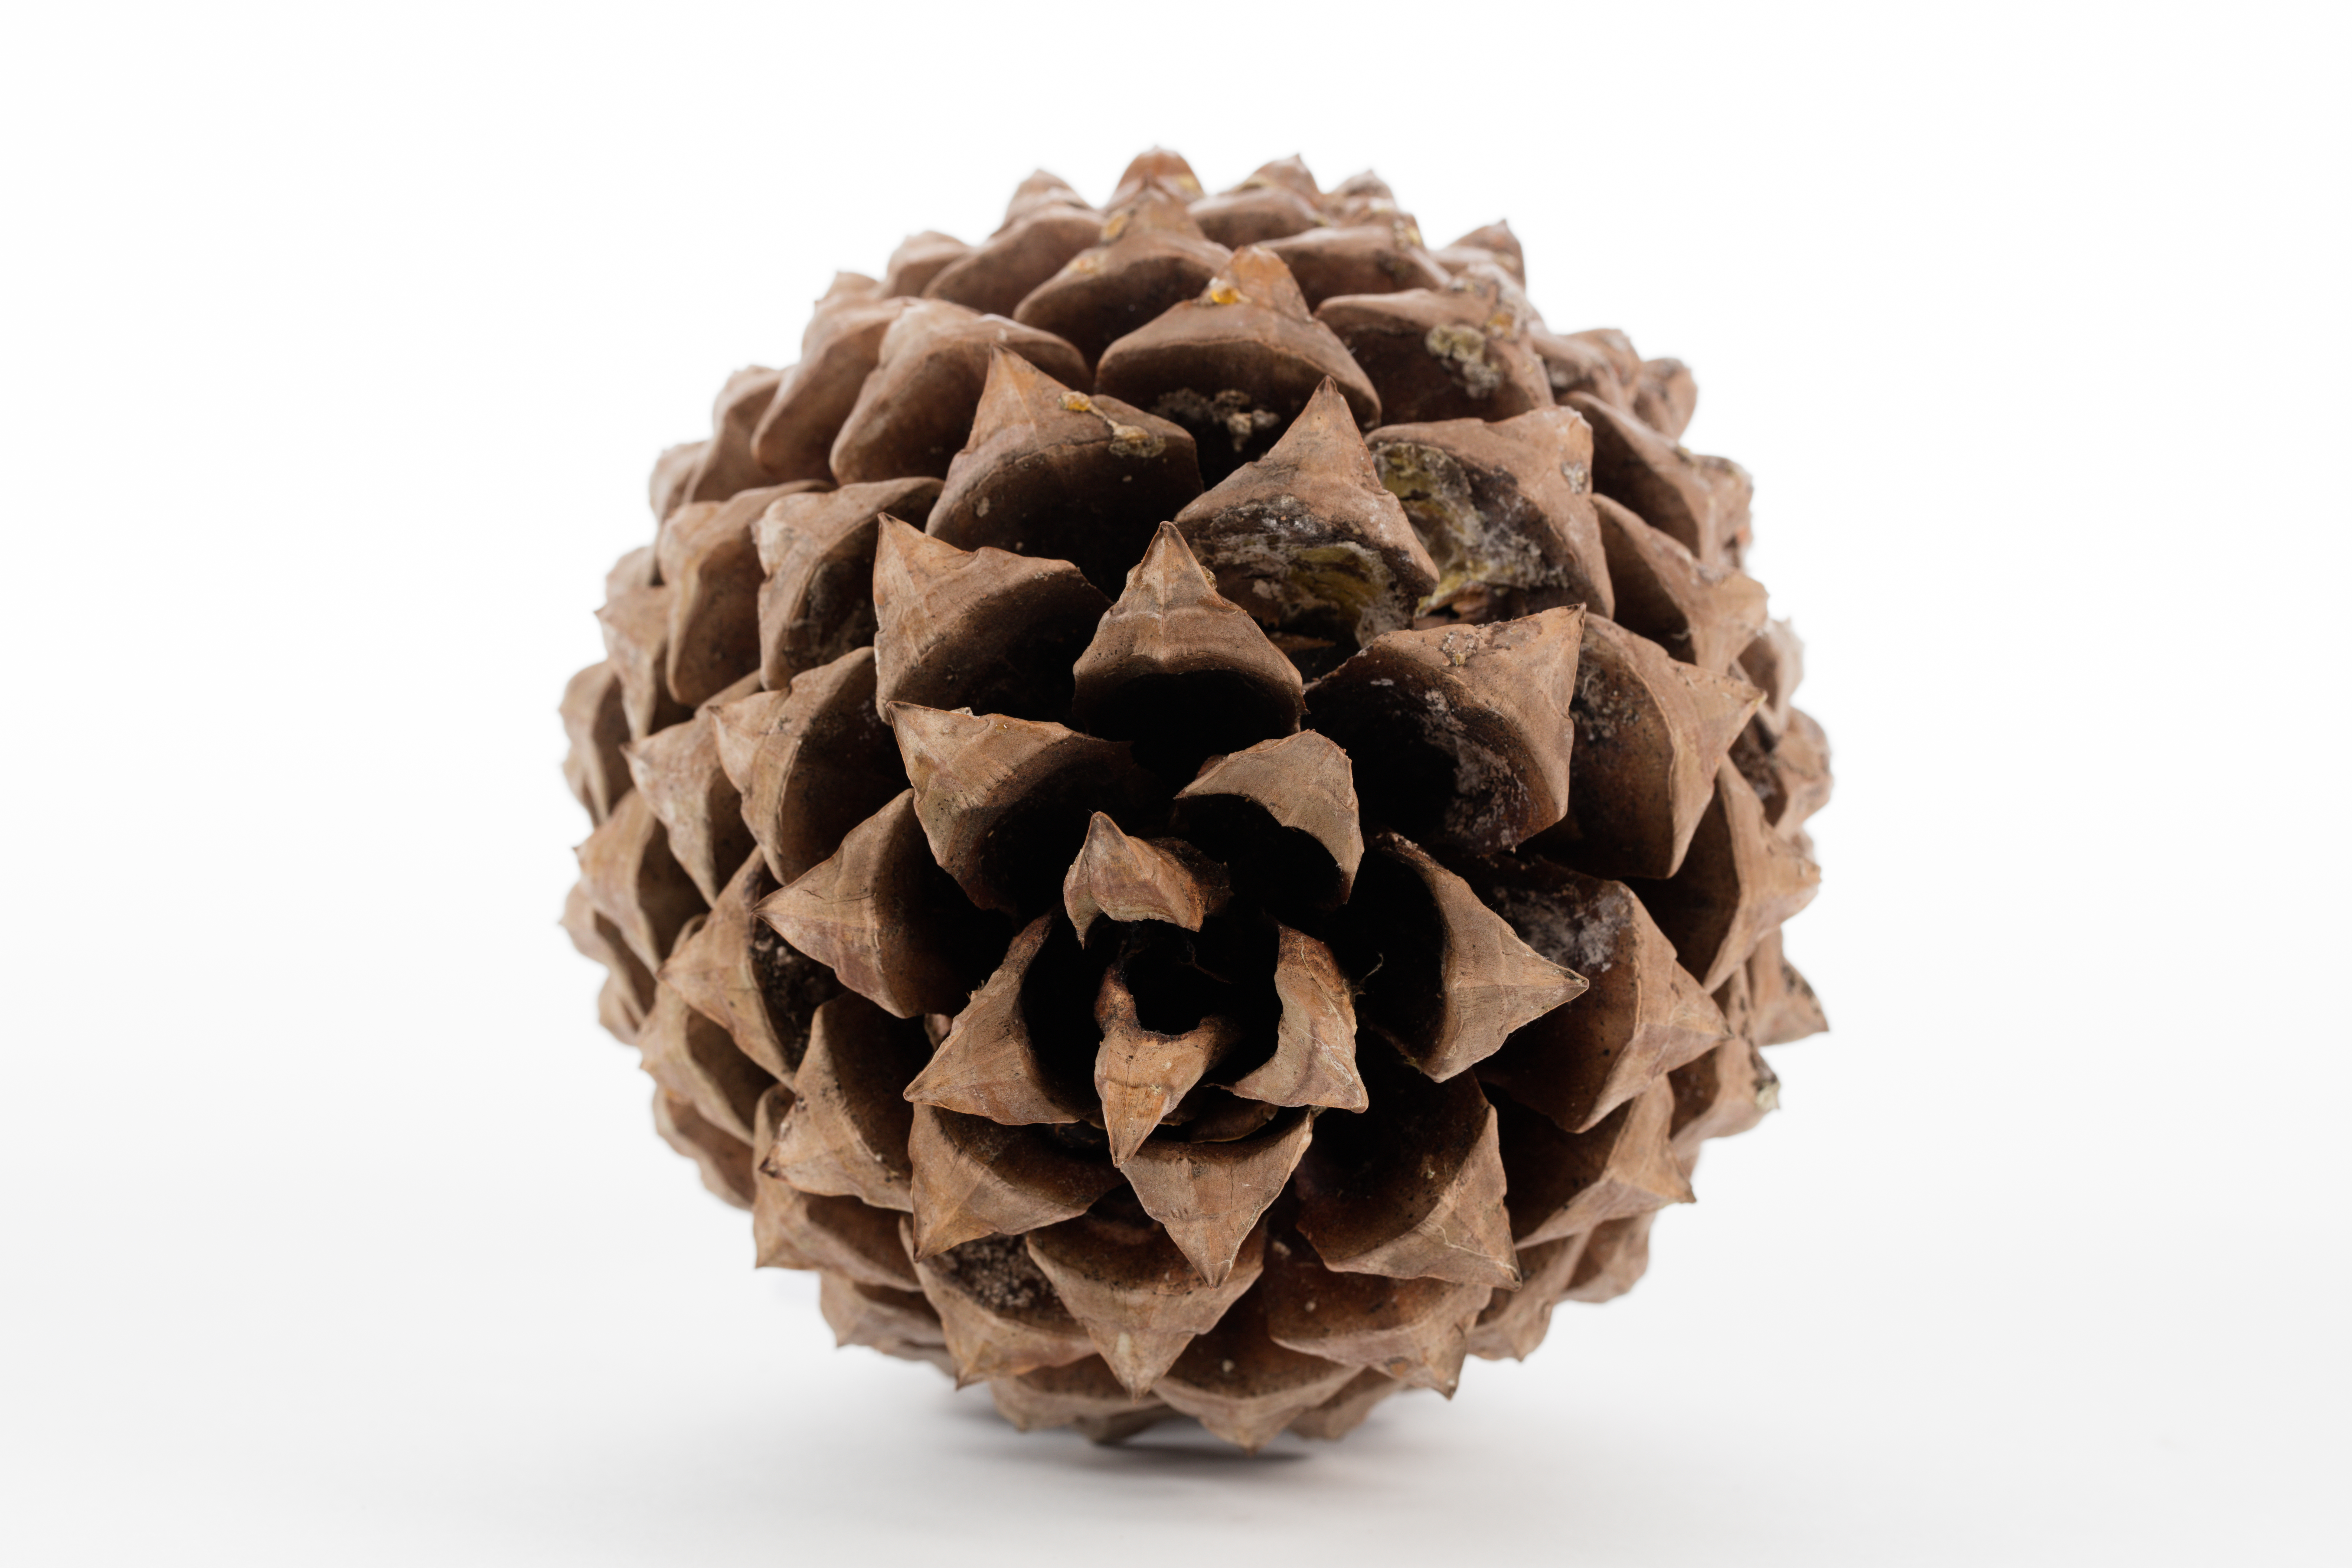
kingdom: Plantae
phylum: Tracheophyta
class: Pinopsida
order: Pinales
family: Pinaceae
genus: Pinus
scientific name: Pinus sabiniana
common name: Bull pine
